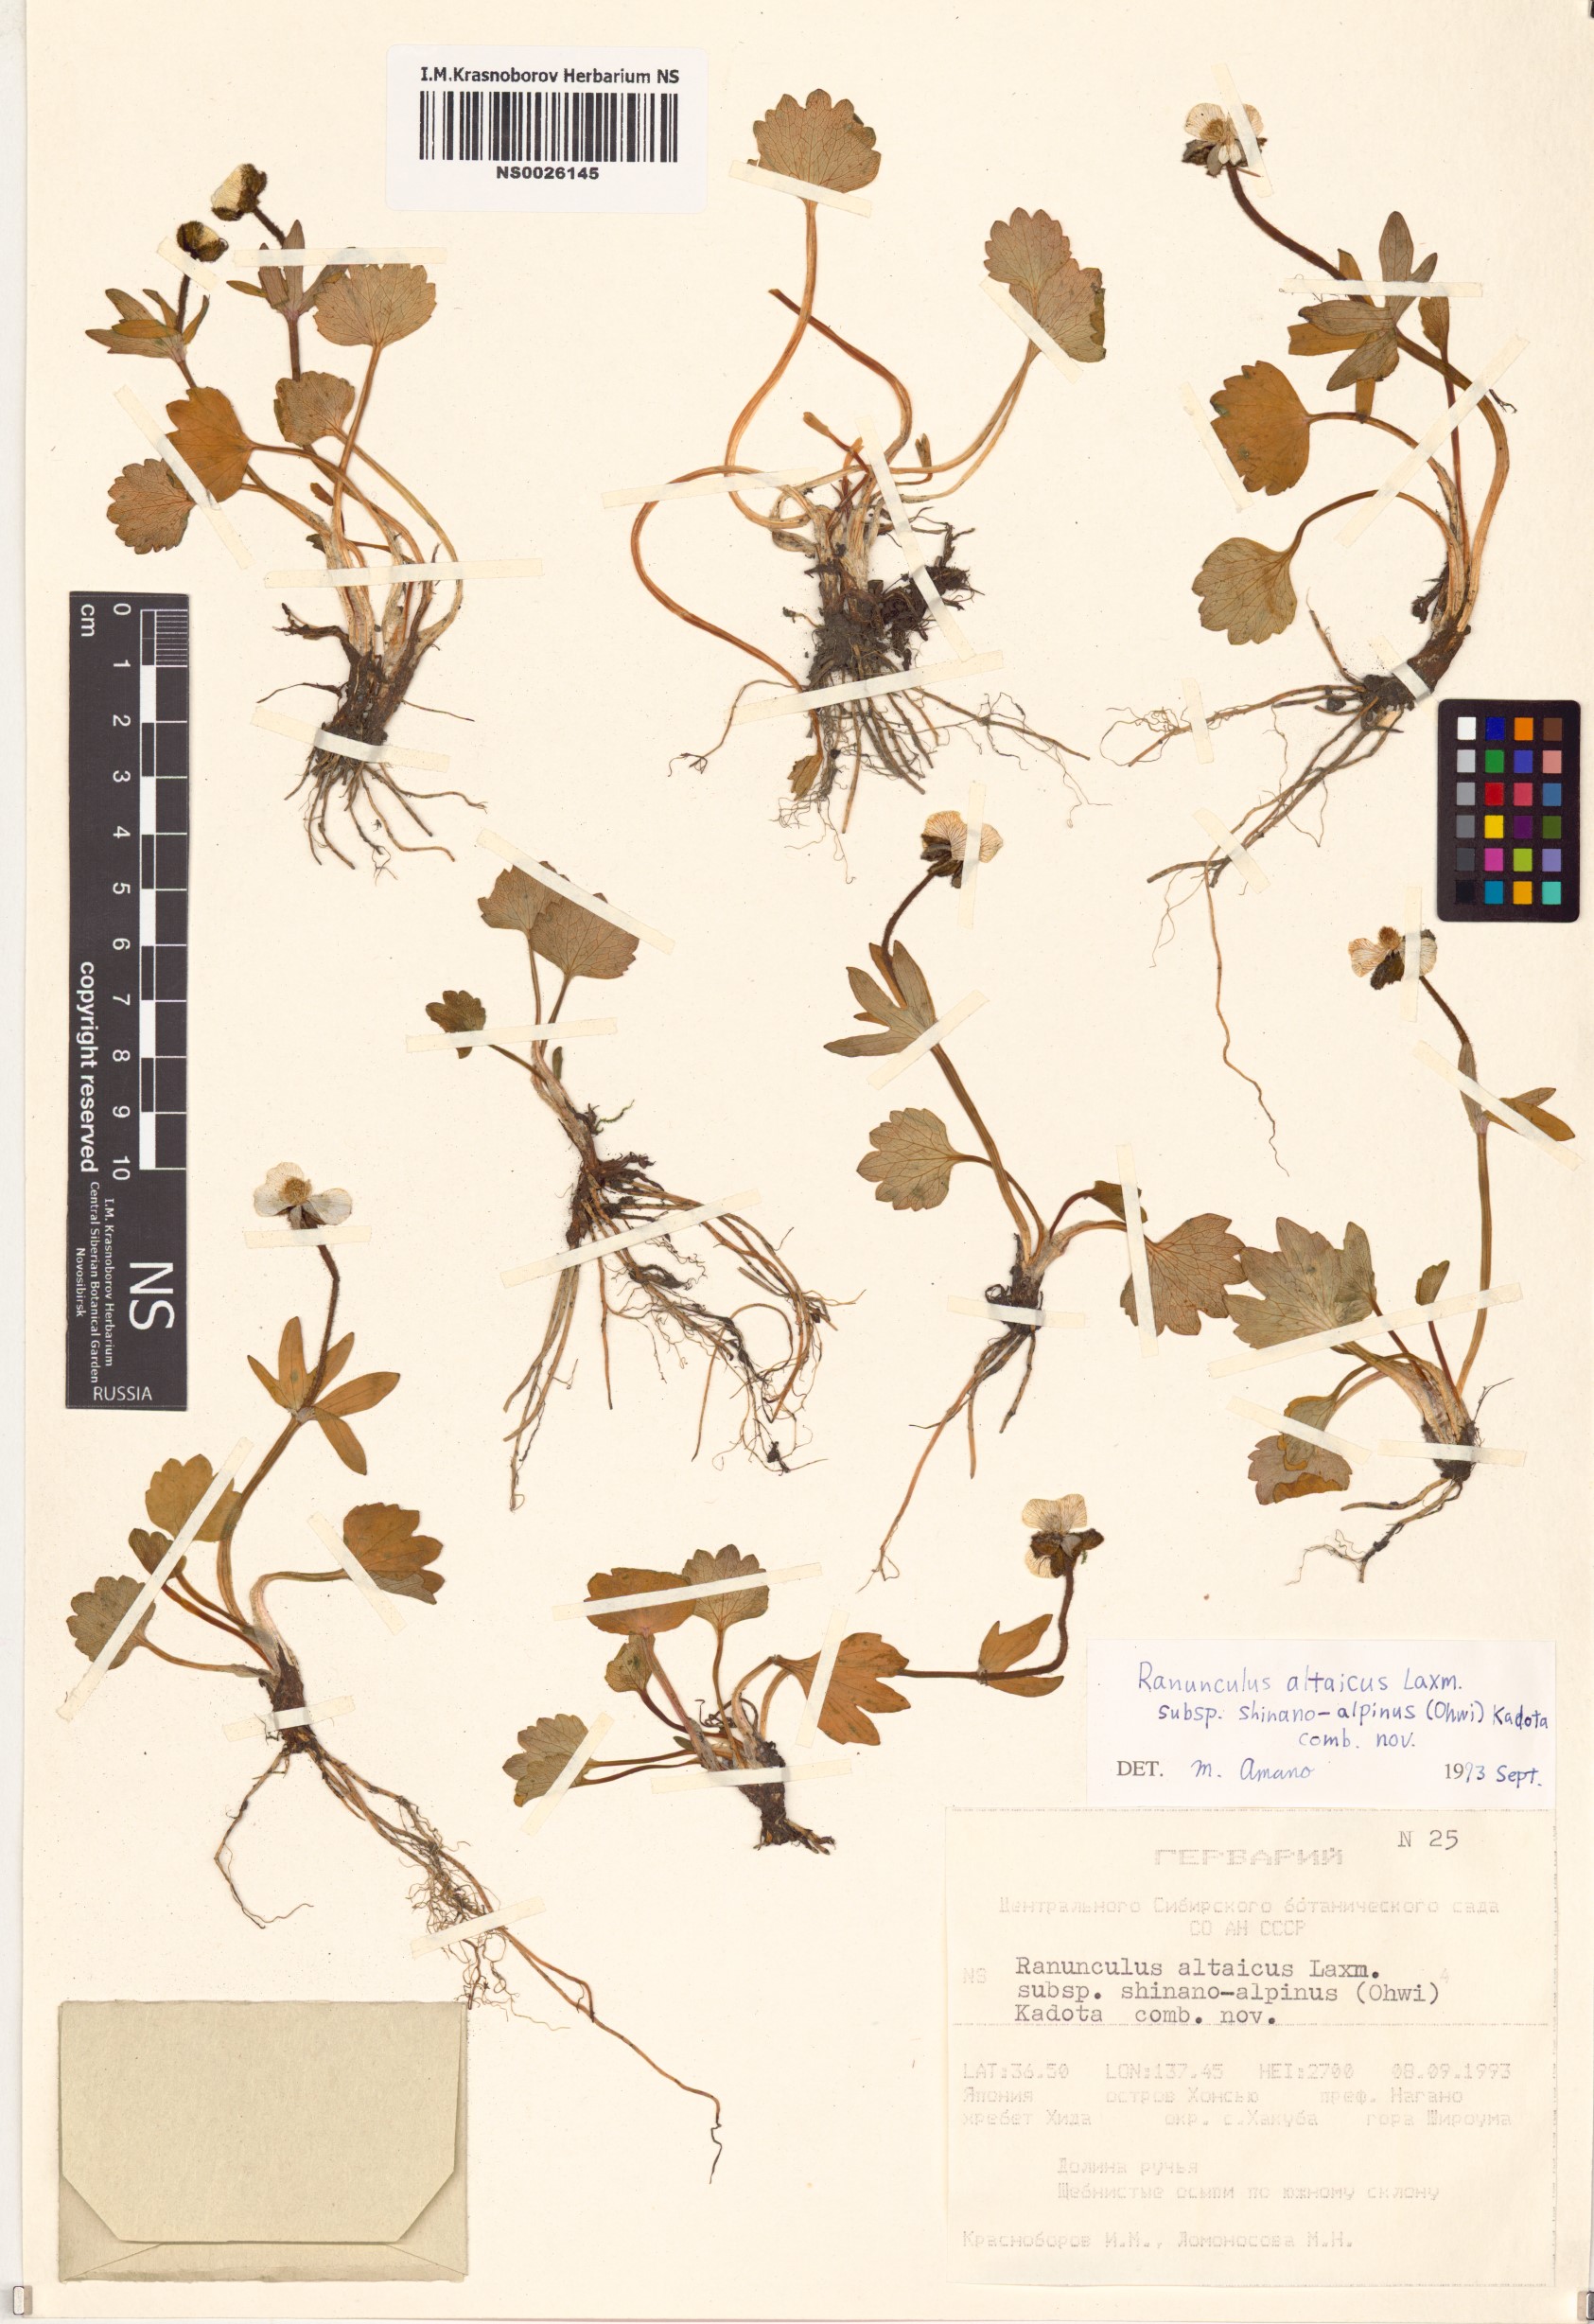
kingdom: Plantae
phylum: Tracheophyta
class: Magnoliopsida
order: Ranunculales
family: Ranunculaceae
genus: Ranunculus
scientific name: Ranunculus shinano-alpinus
